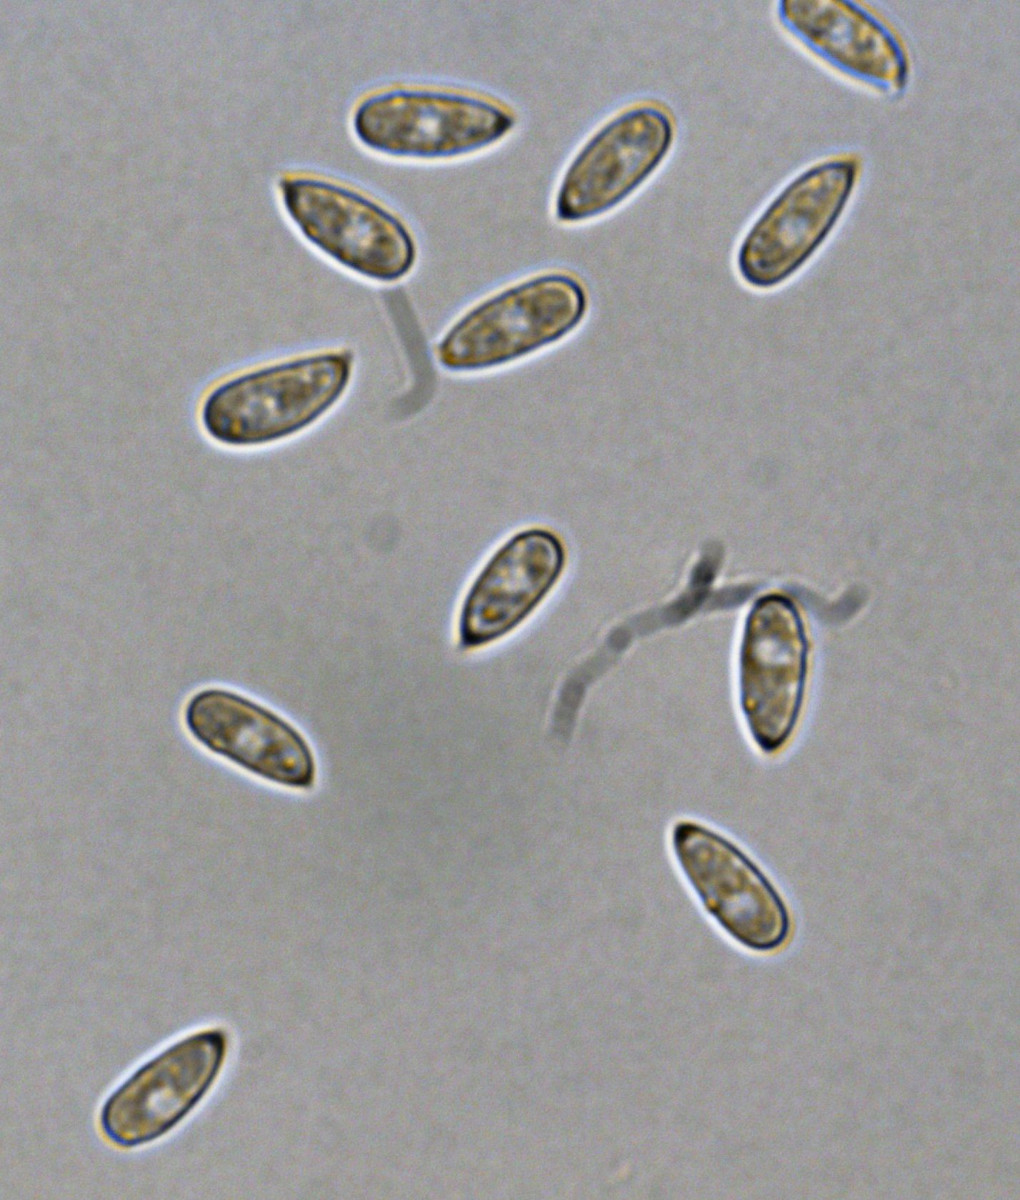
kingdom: Fungi
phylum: Basidiomycota
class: Agaricomycetes
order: Agaricales
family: Macrocystidiaceae
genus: Macrocystidia
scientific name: Macrocystidia cucumis
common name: agurkehat
